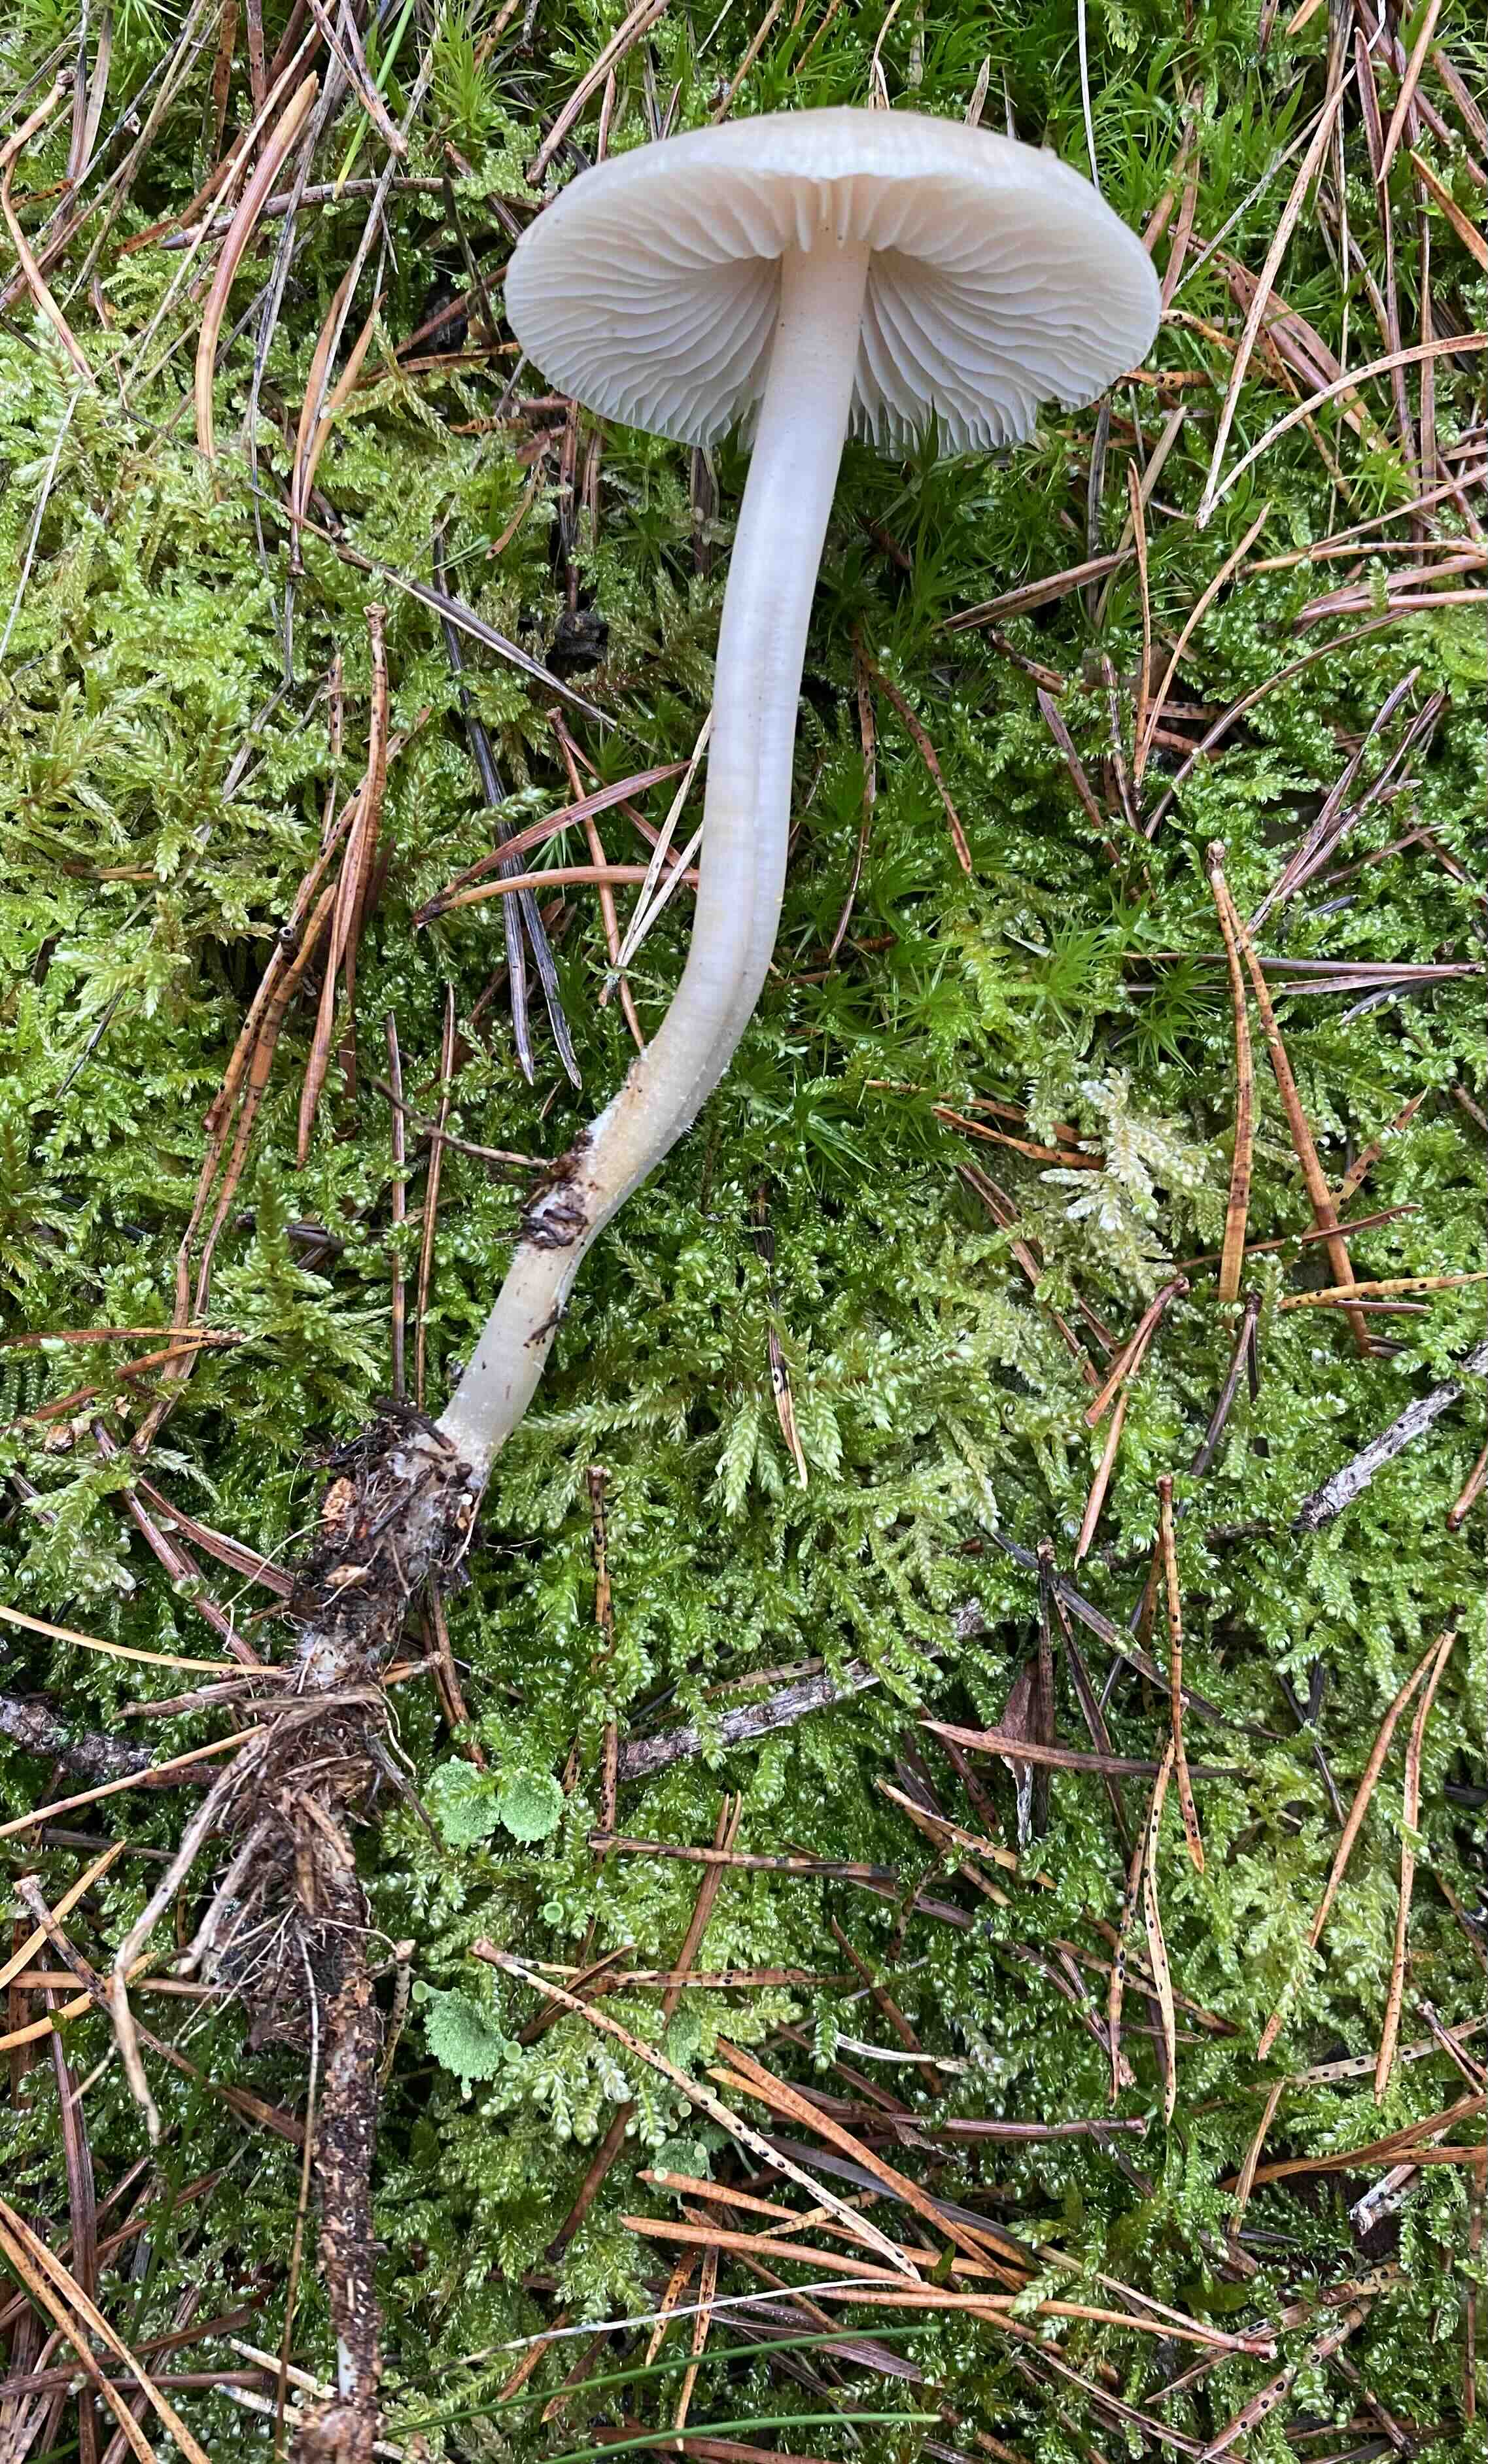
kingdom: Fungi
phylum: Basidiomycota
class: Agaricomycetes
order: Agaricales
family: Mycenaceae
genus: Mycena
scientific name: Mycena galericulata
